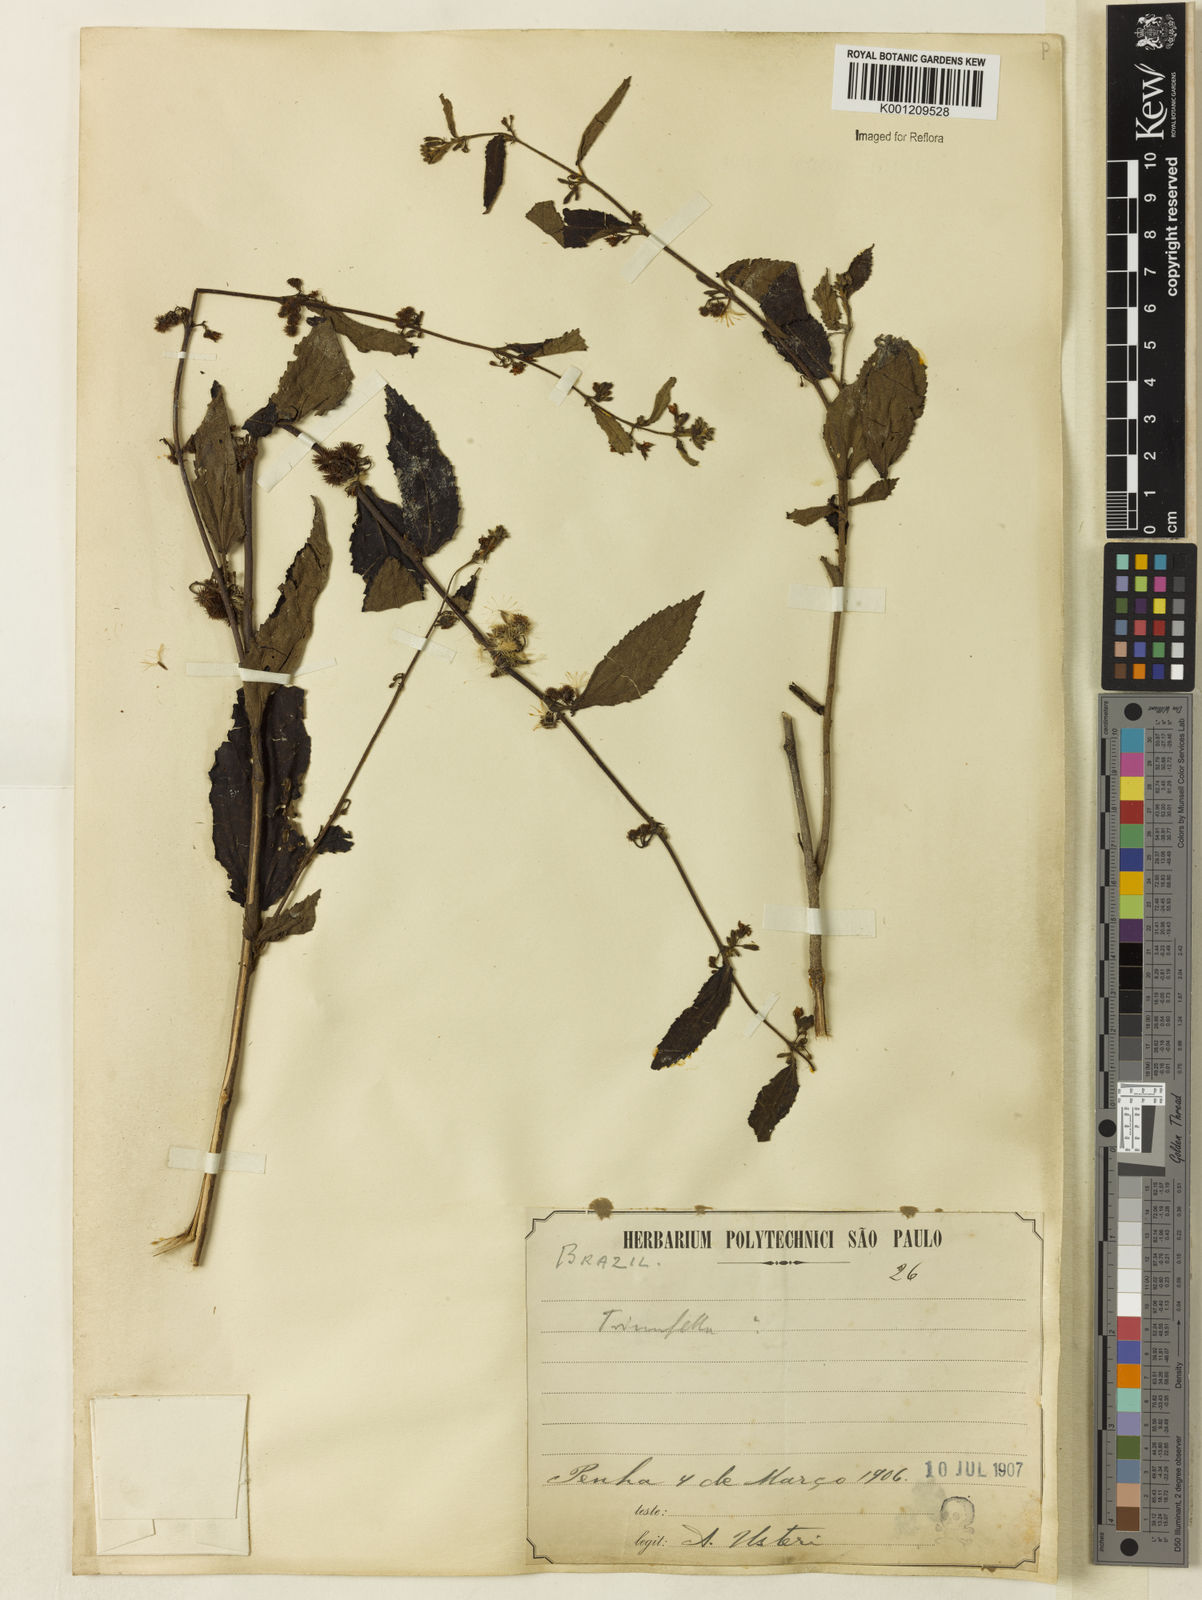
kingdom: Plantae
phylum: Tracheophyta
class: Magnoliopsida
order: Malvales
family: Malvaceae
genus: Triumfetta
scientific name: Triumfetta semitriloba
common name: Sacramento burbark
